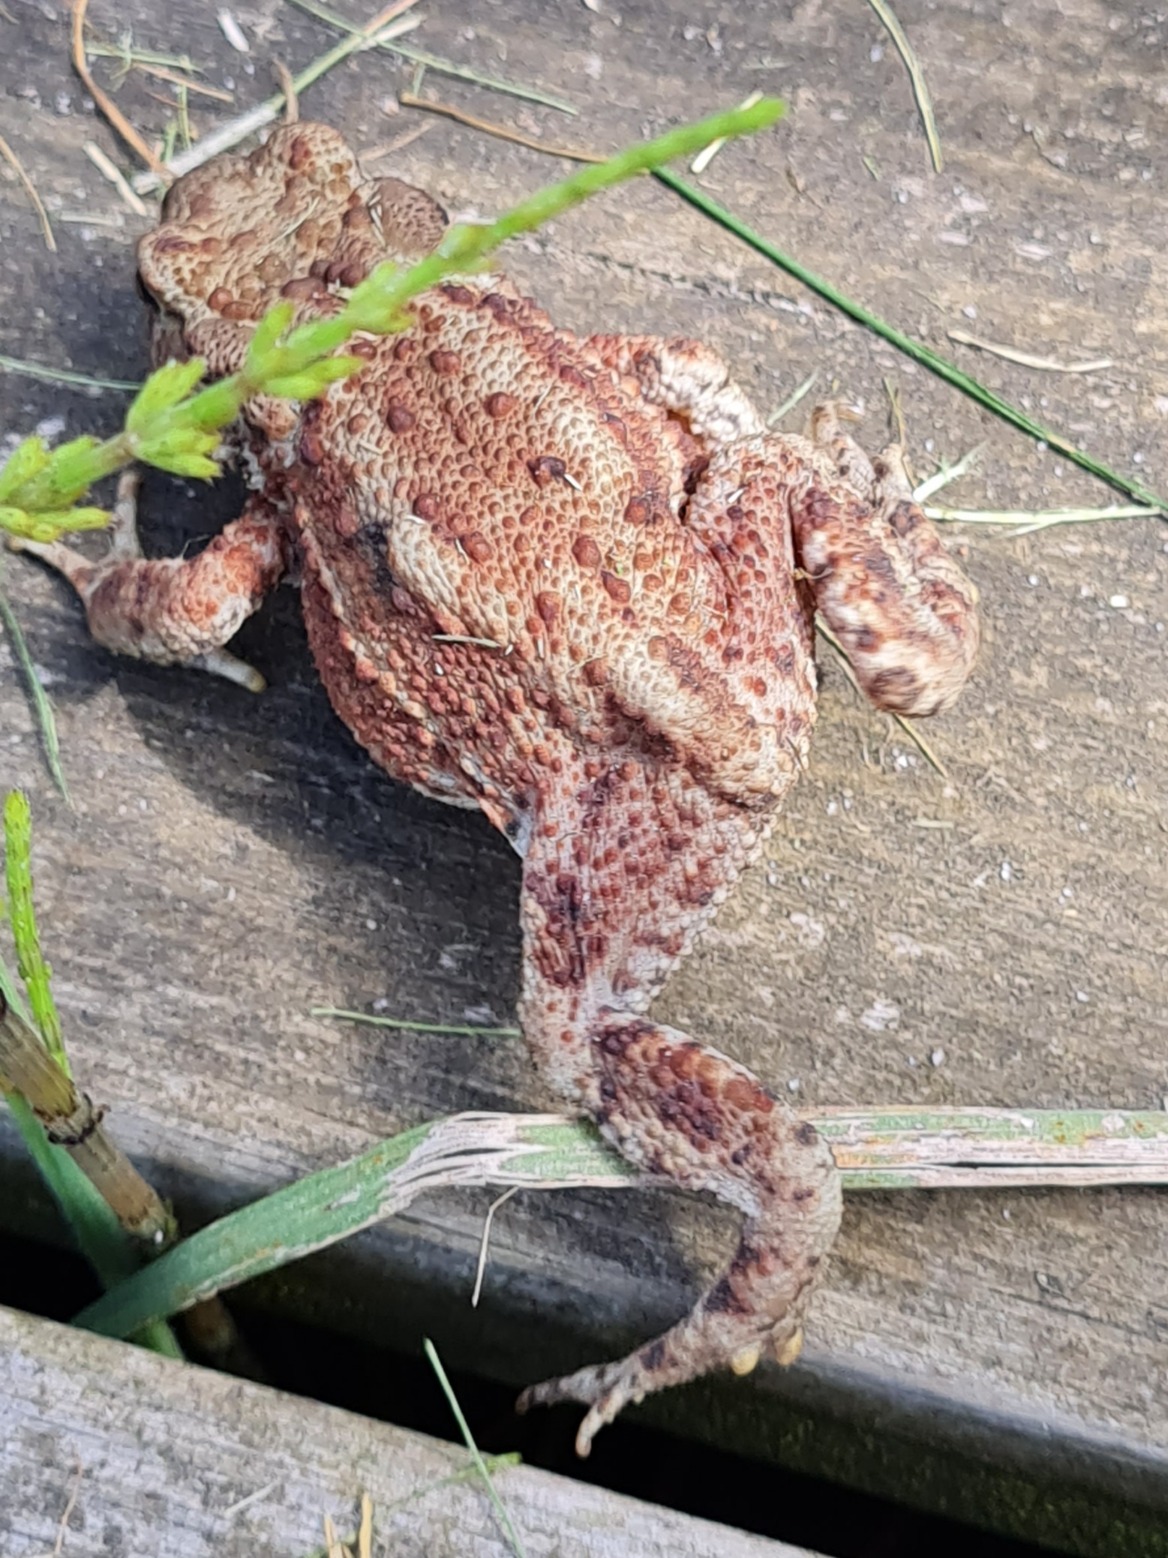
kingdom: Animalia
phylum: Chordata
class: Amphibia
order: Anura
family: Bufonidae
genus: Bufo
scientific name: Bufo bufo
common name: Skrubtudse
